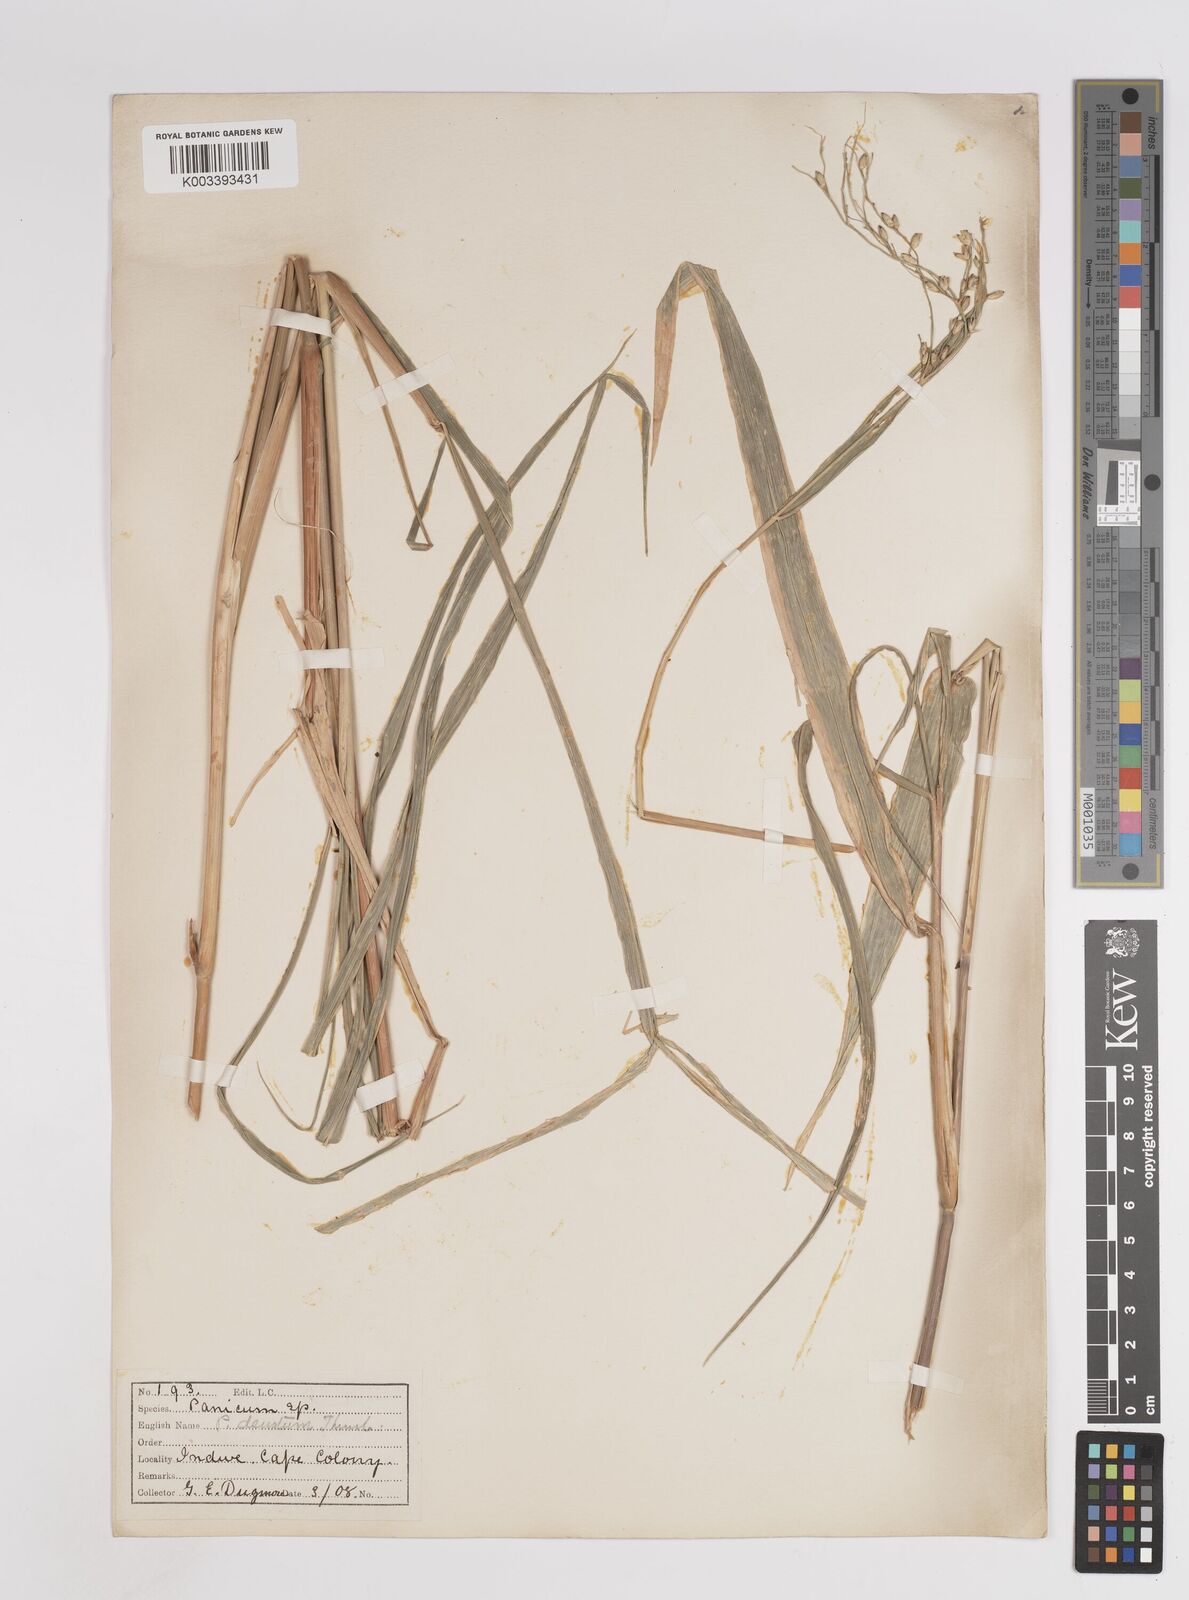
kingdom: Plantae
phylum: Tracheophyta
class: Liliopsida
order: Poales
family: Poaceae
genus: Panicum
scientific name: Panicum deustum
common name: Reed panicum
